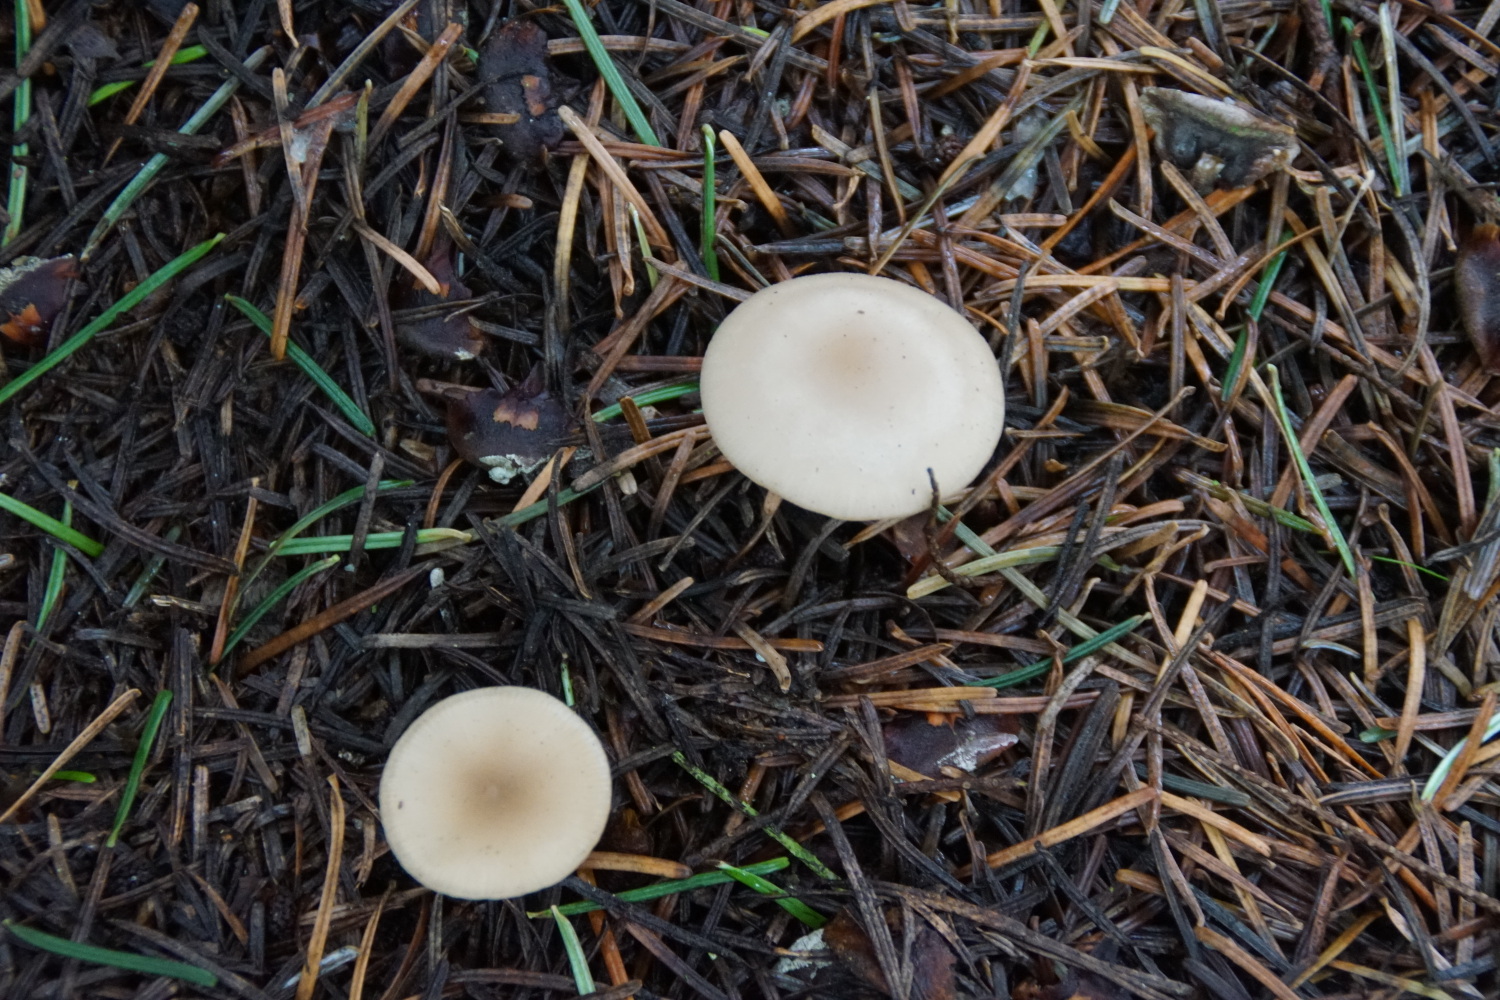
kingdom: Fungi
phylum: Basidiomycota
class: Agaricomycetes
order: Agaricales
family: Tricholomataceae
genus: Clitocybe
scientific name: Clitocybe fragrans
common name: vellugtende tragthat
